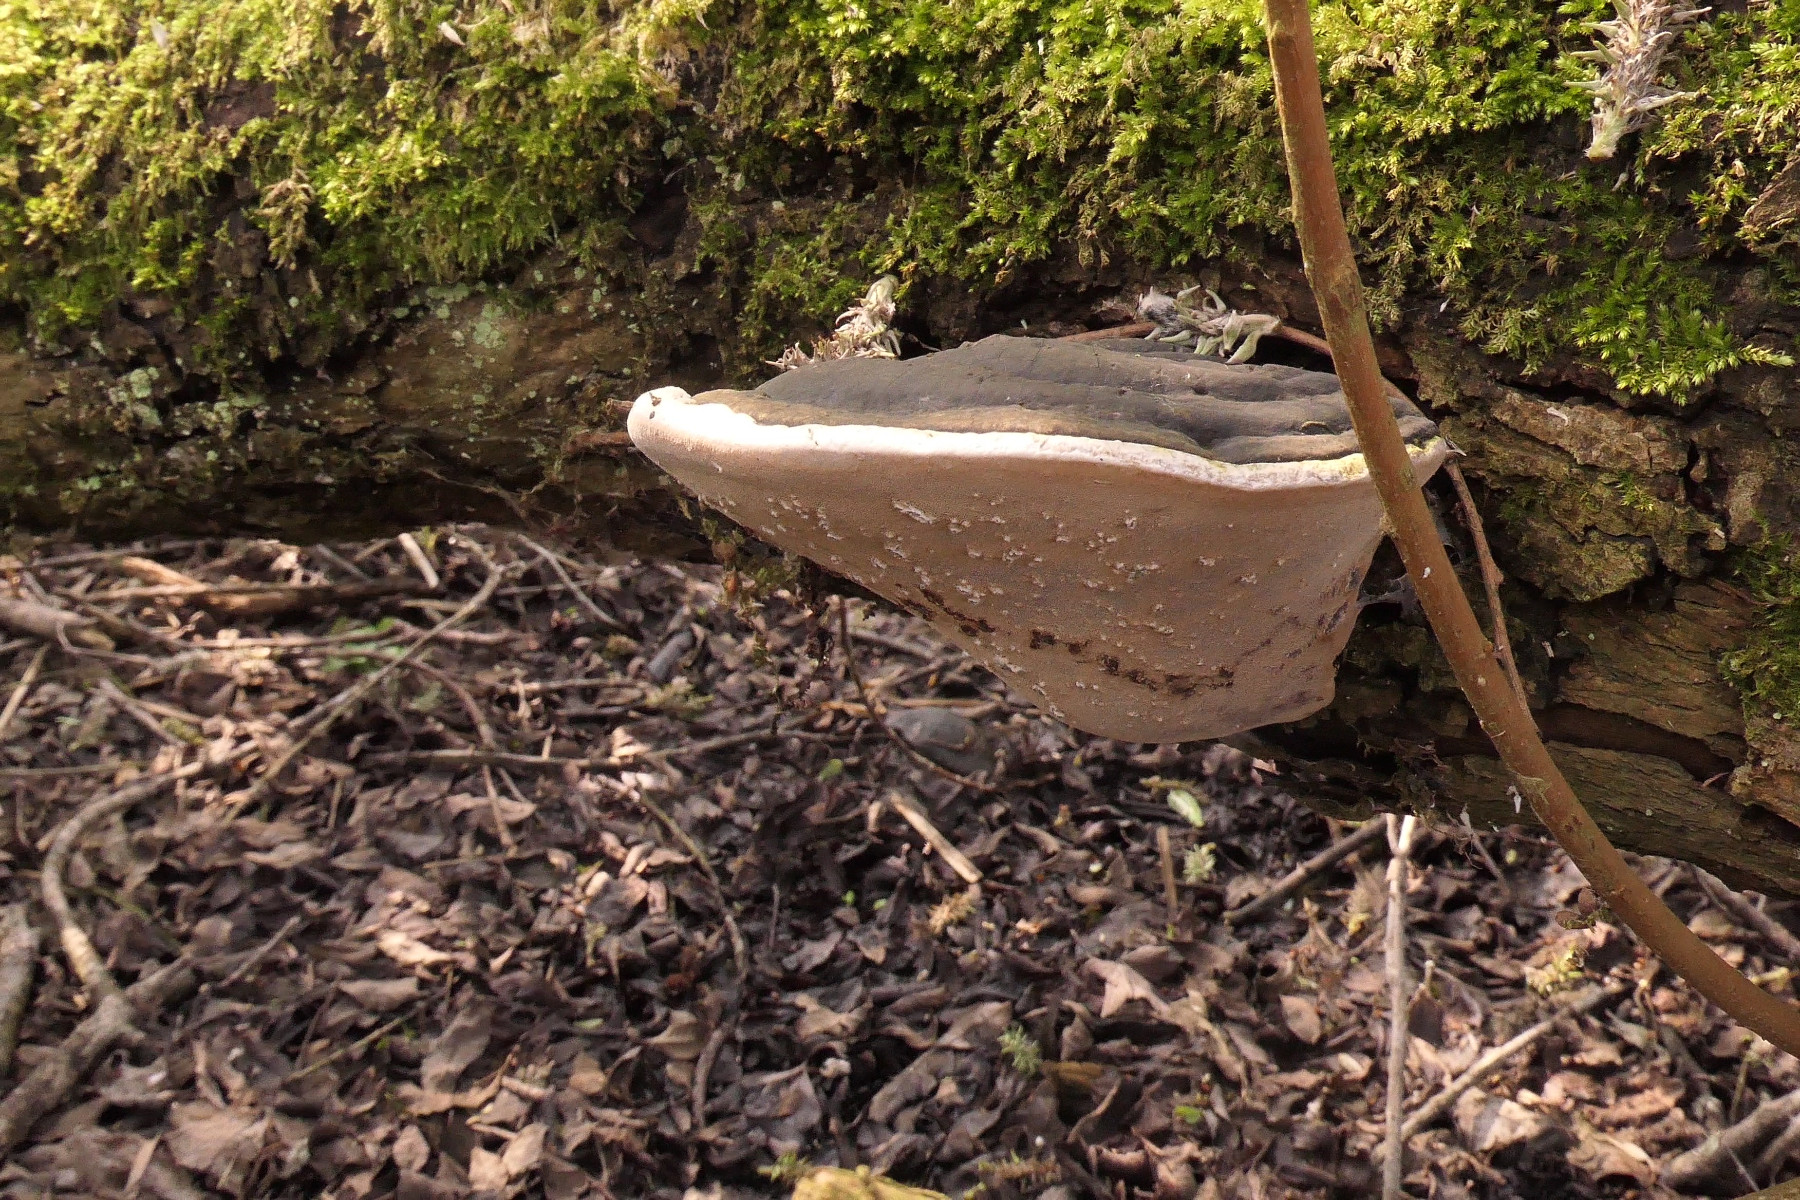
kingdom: Fungi
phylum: Basidiomycota
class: Agaricomycetes
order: Hymenochaetales
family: Hymenochaetaceae
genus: Phellinus
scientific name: Phellinus igniarius
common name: almindelig ildporesvamp
